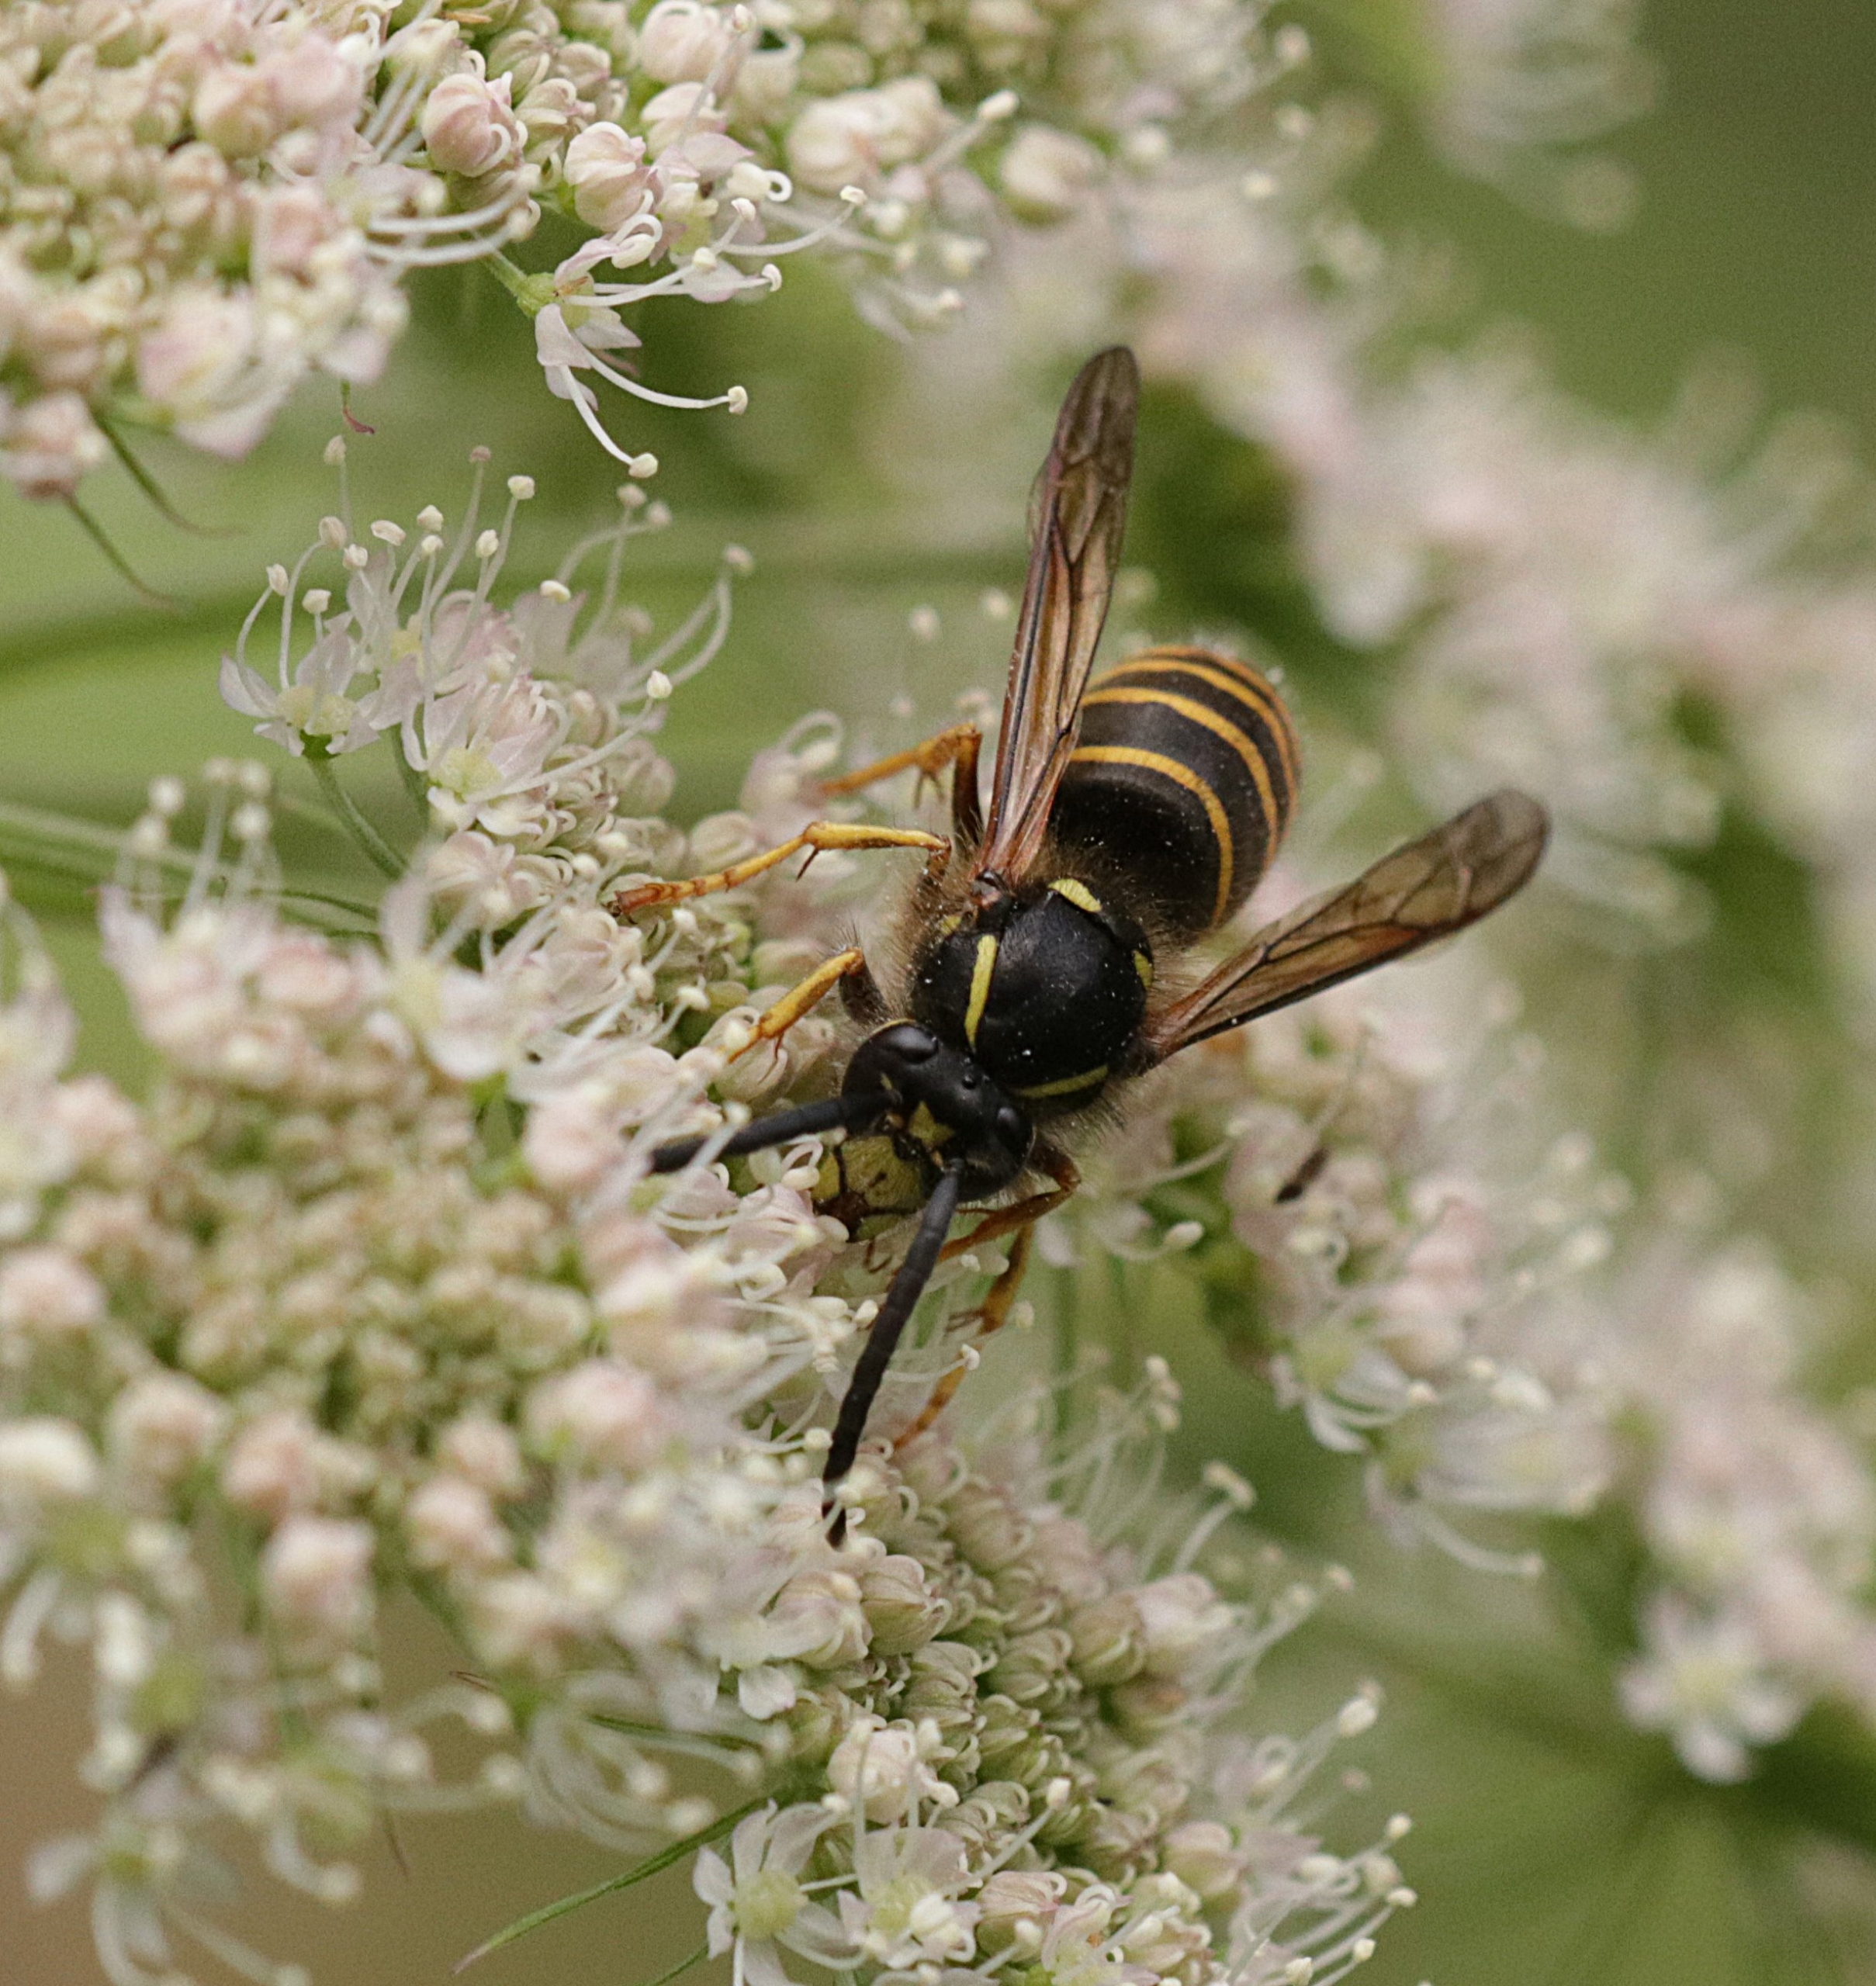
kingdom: Animalia
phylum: Arthropoda
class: Insecta
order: Hymenoptera
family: Vespidae
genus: Dolichovespula
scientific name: Dolichovespula saxonica
